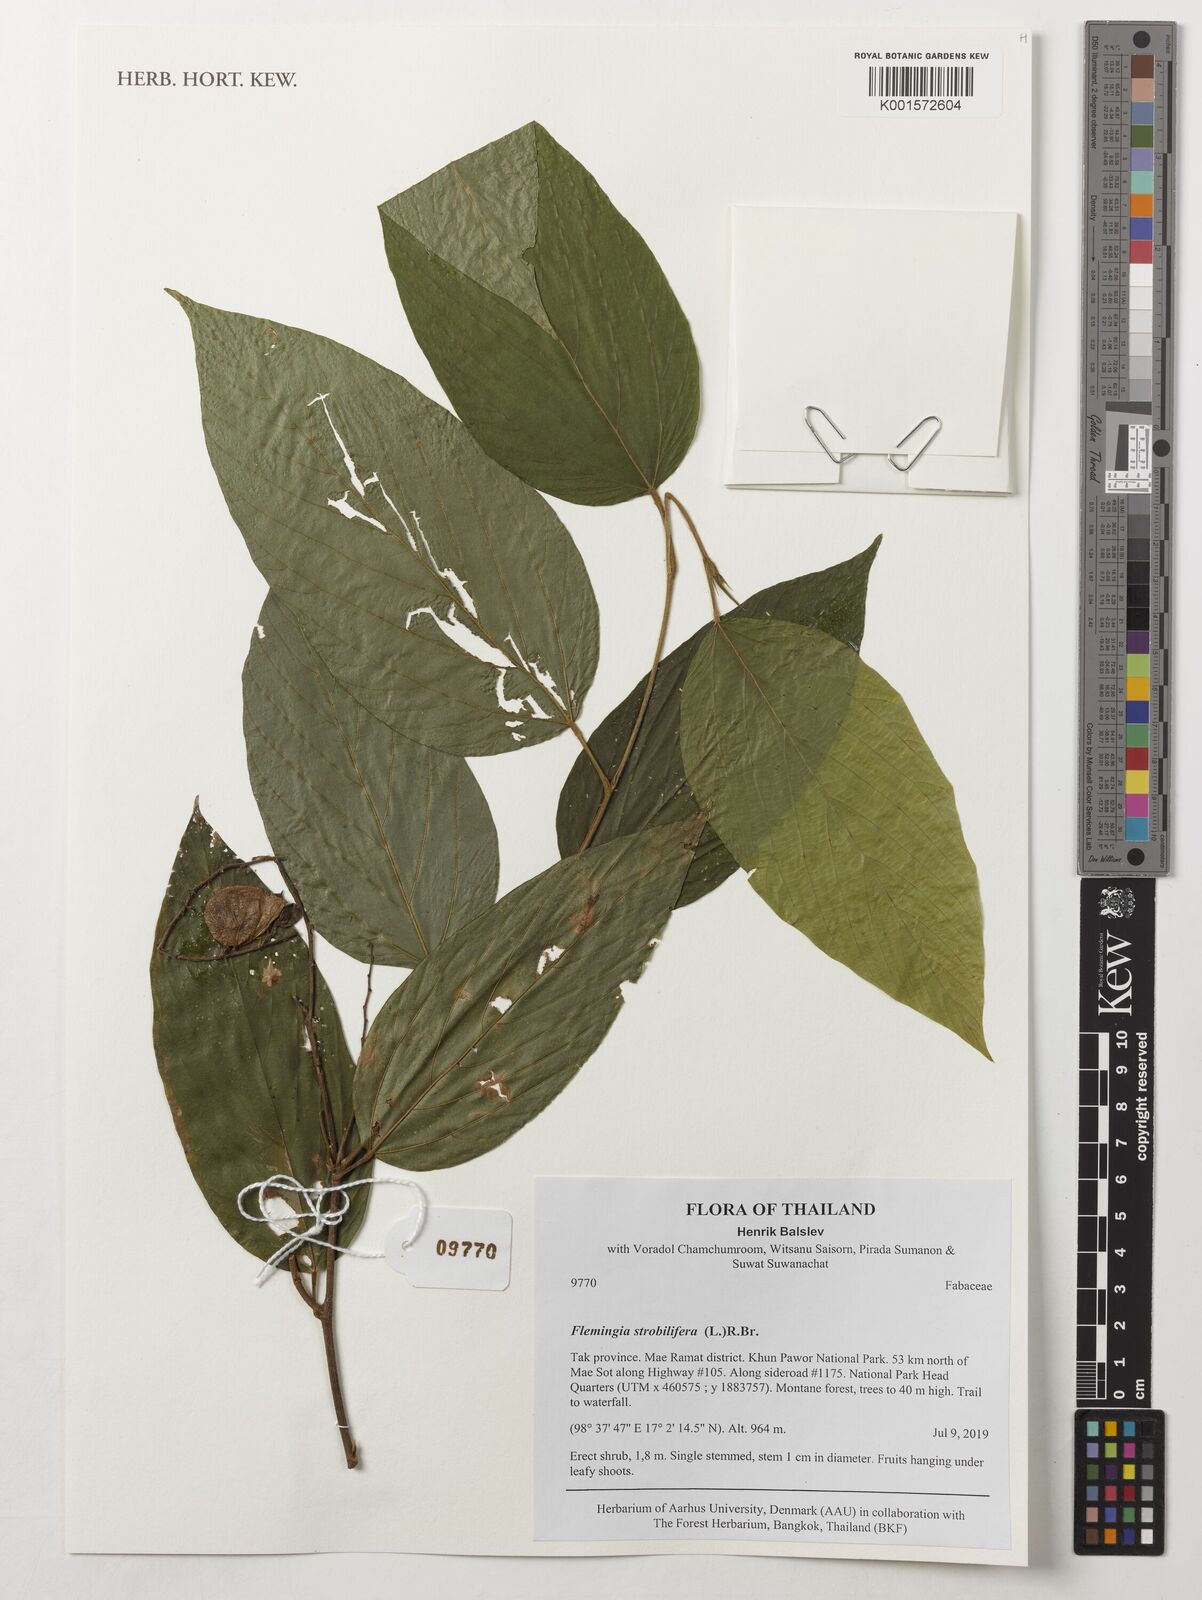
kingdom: Plantae
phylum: Tracheophyta
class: Magnoliopsida
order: Fabales
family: Fabaceae
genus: Flemingia
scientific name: Flemingia strobilifera
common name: Wild hops
